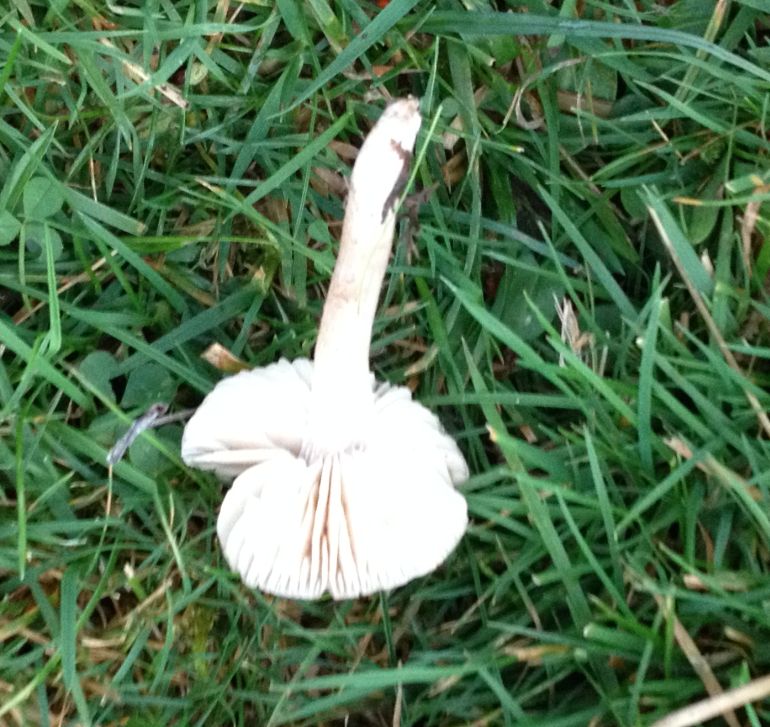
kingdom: Fungi
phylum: Basidiomycota
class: Agaricomycetes
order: Agaricales
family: Tricholomataceae
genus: Dermoloma
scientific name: Dermoloma cuneifolium
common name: eng-nonnehat
